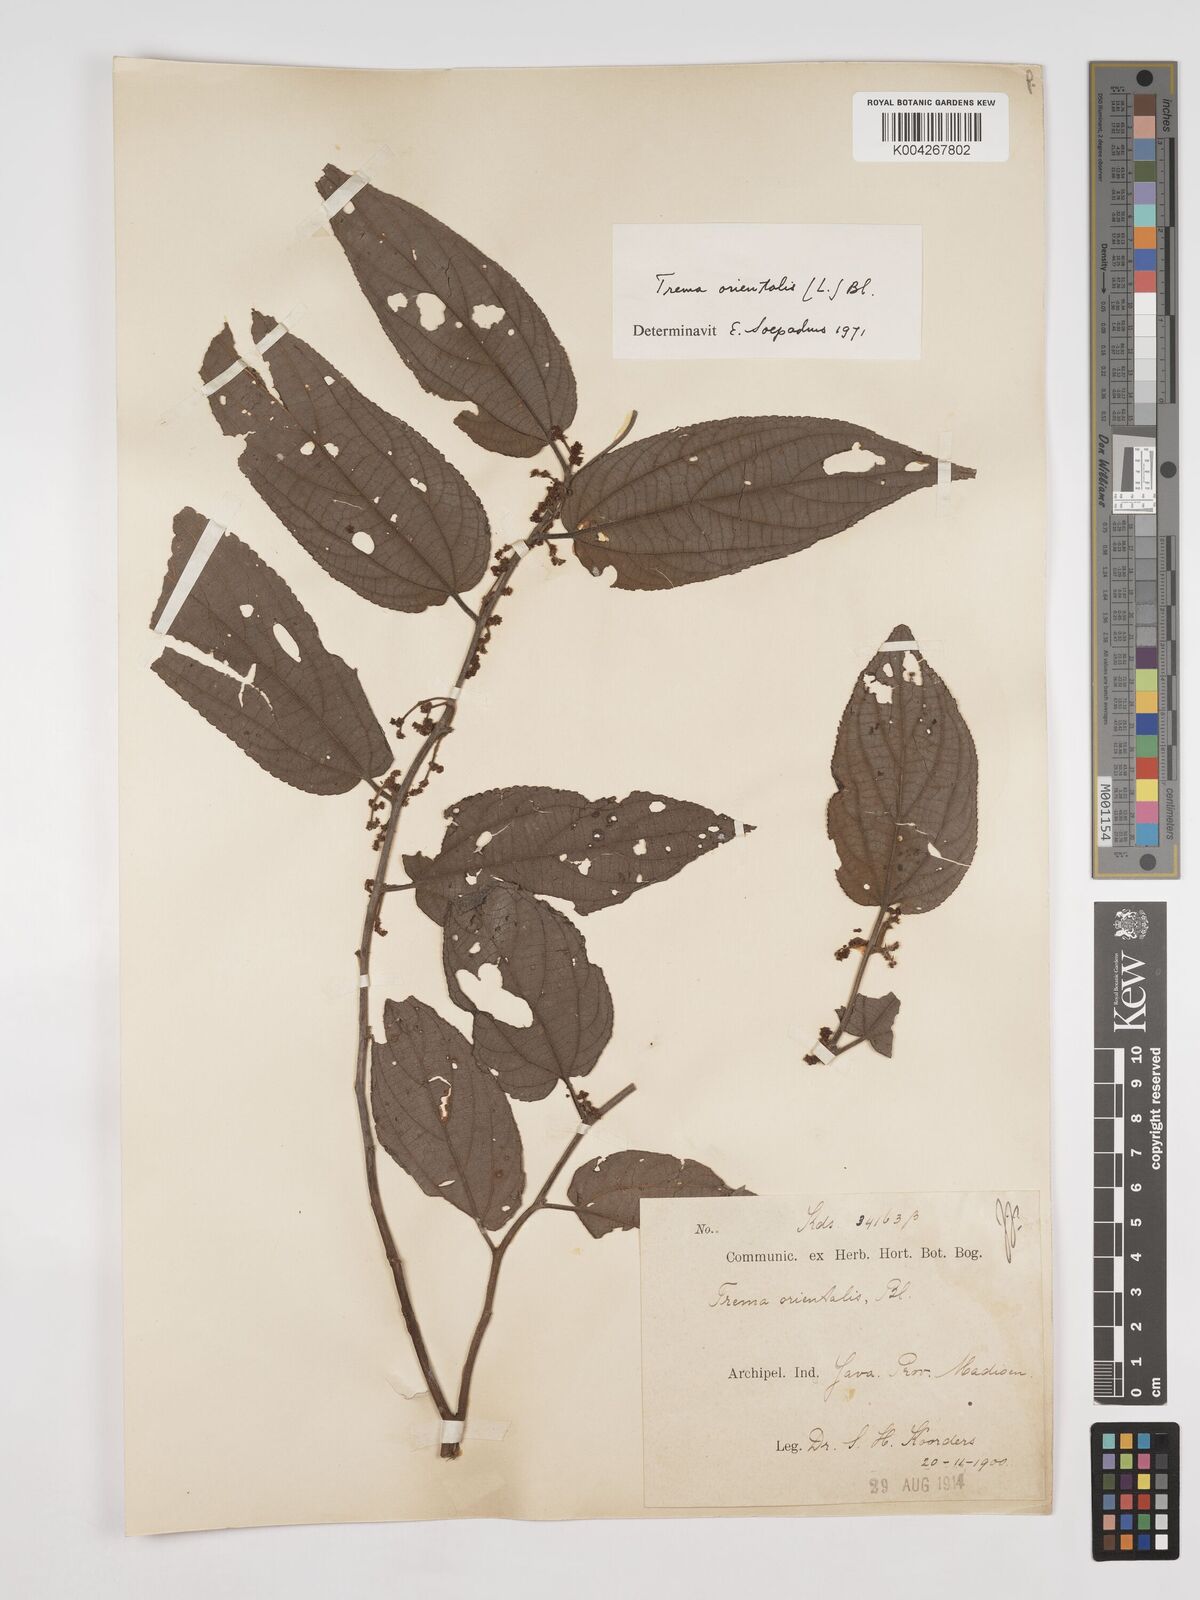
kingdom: Plantae
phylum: Tracheophyta
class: Magnoliopsida
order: Rosales
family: Cannabaceae
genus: Trema
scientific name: Trema orientale
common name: Indian charcoal tree
